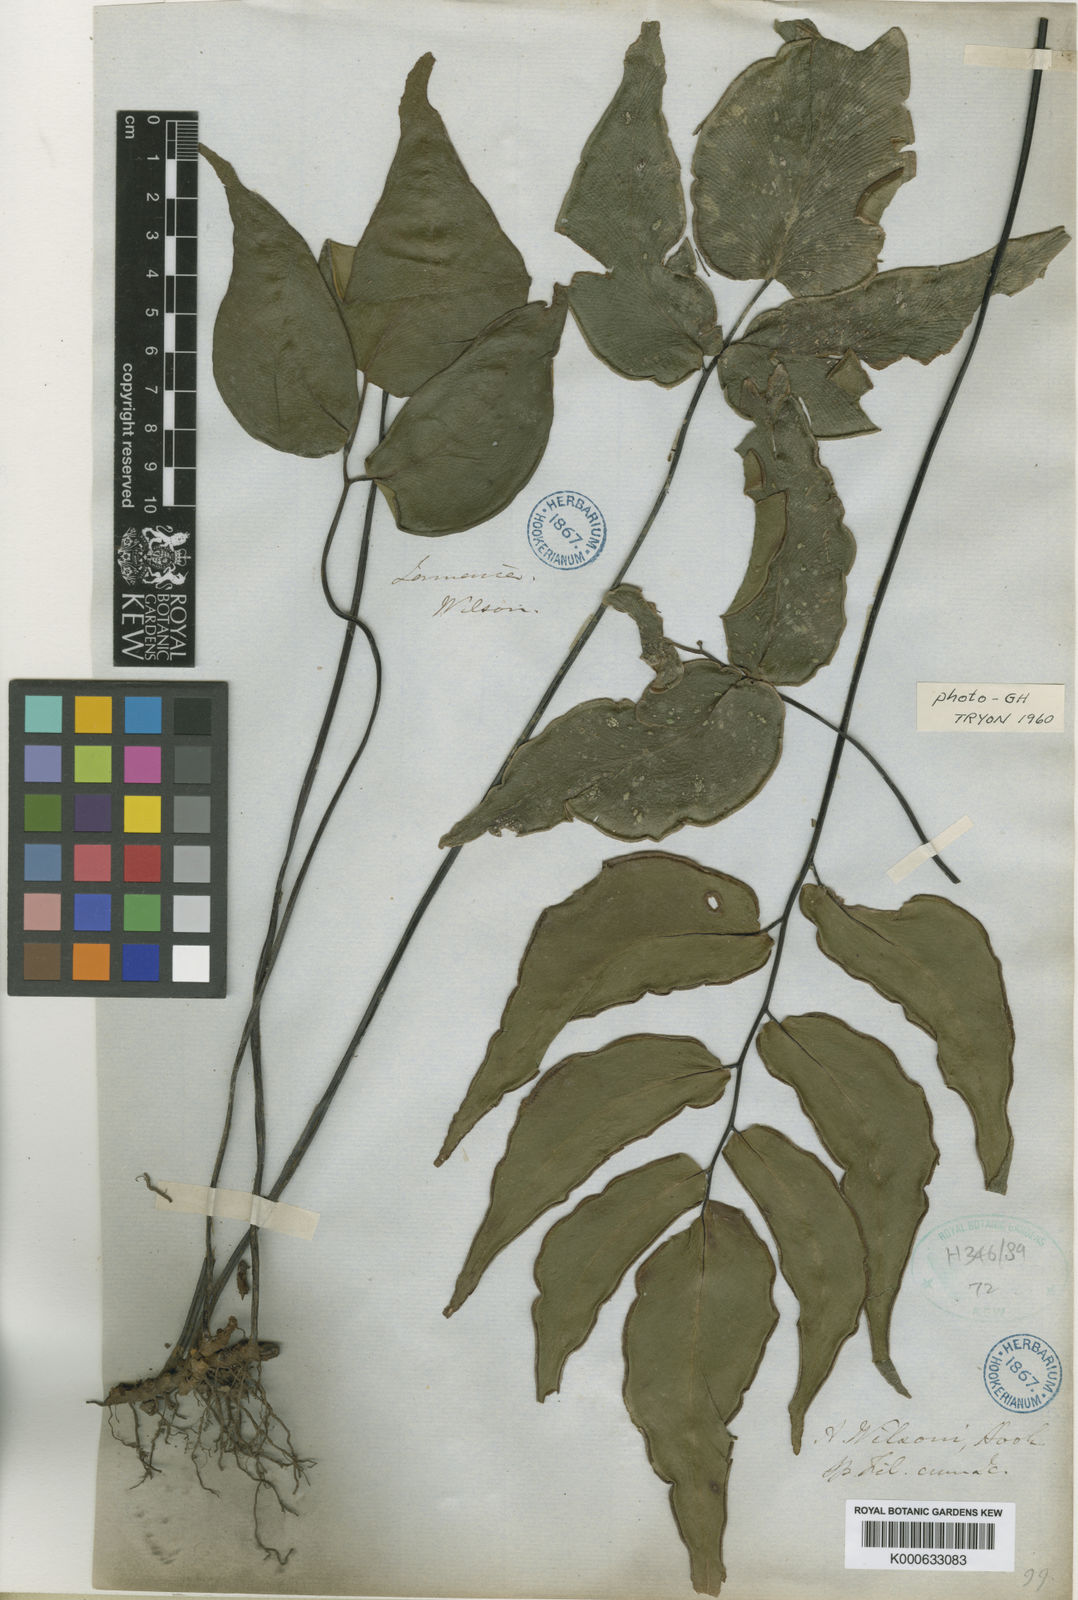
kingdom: Plantae
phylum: Tracheophyta
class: Polypodiopsida
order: Polypodiales
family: Pteridaceae
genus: Adiantum
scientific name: Adiantum wilsonii
